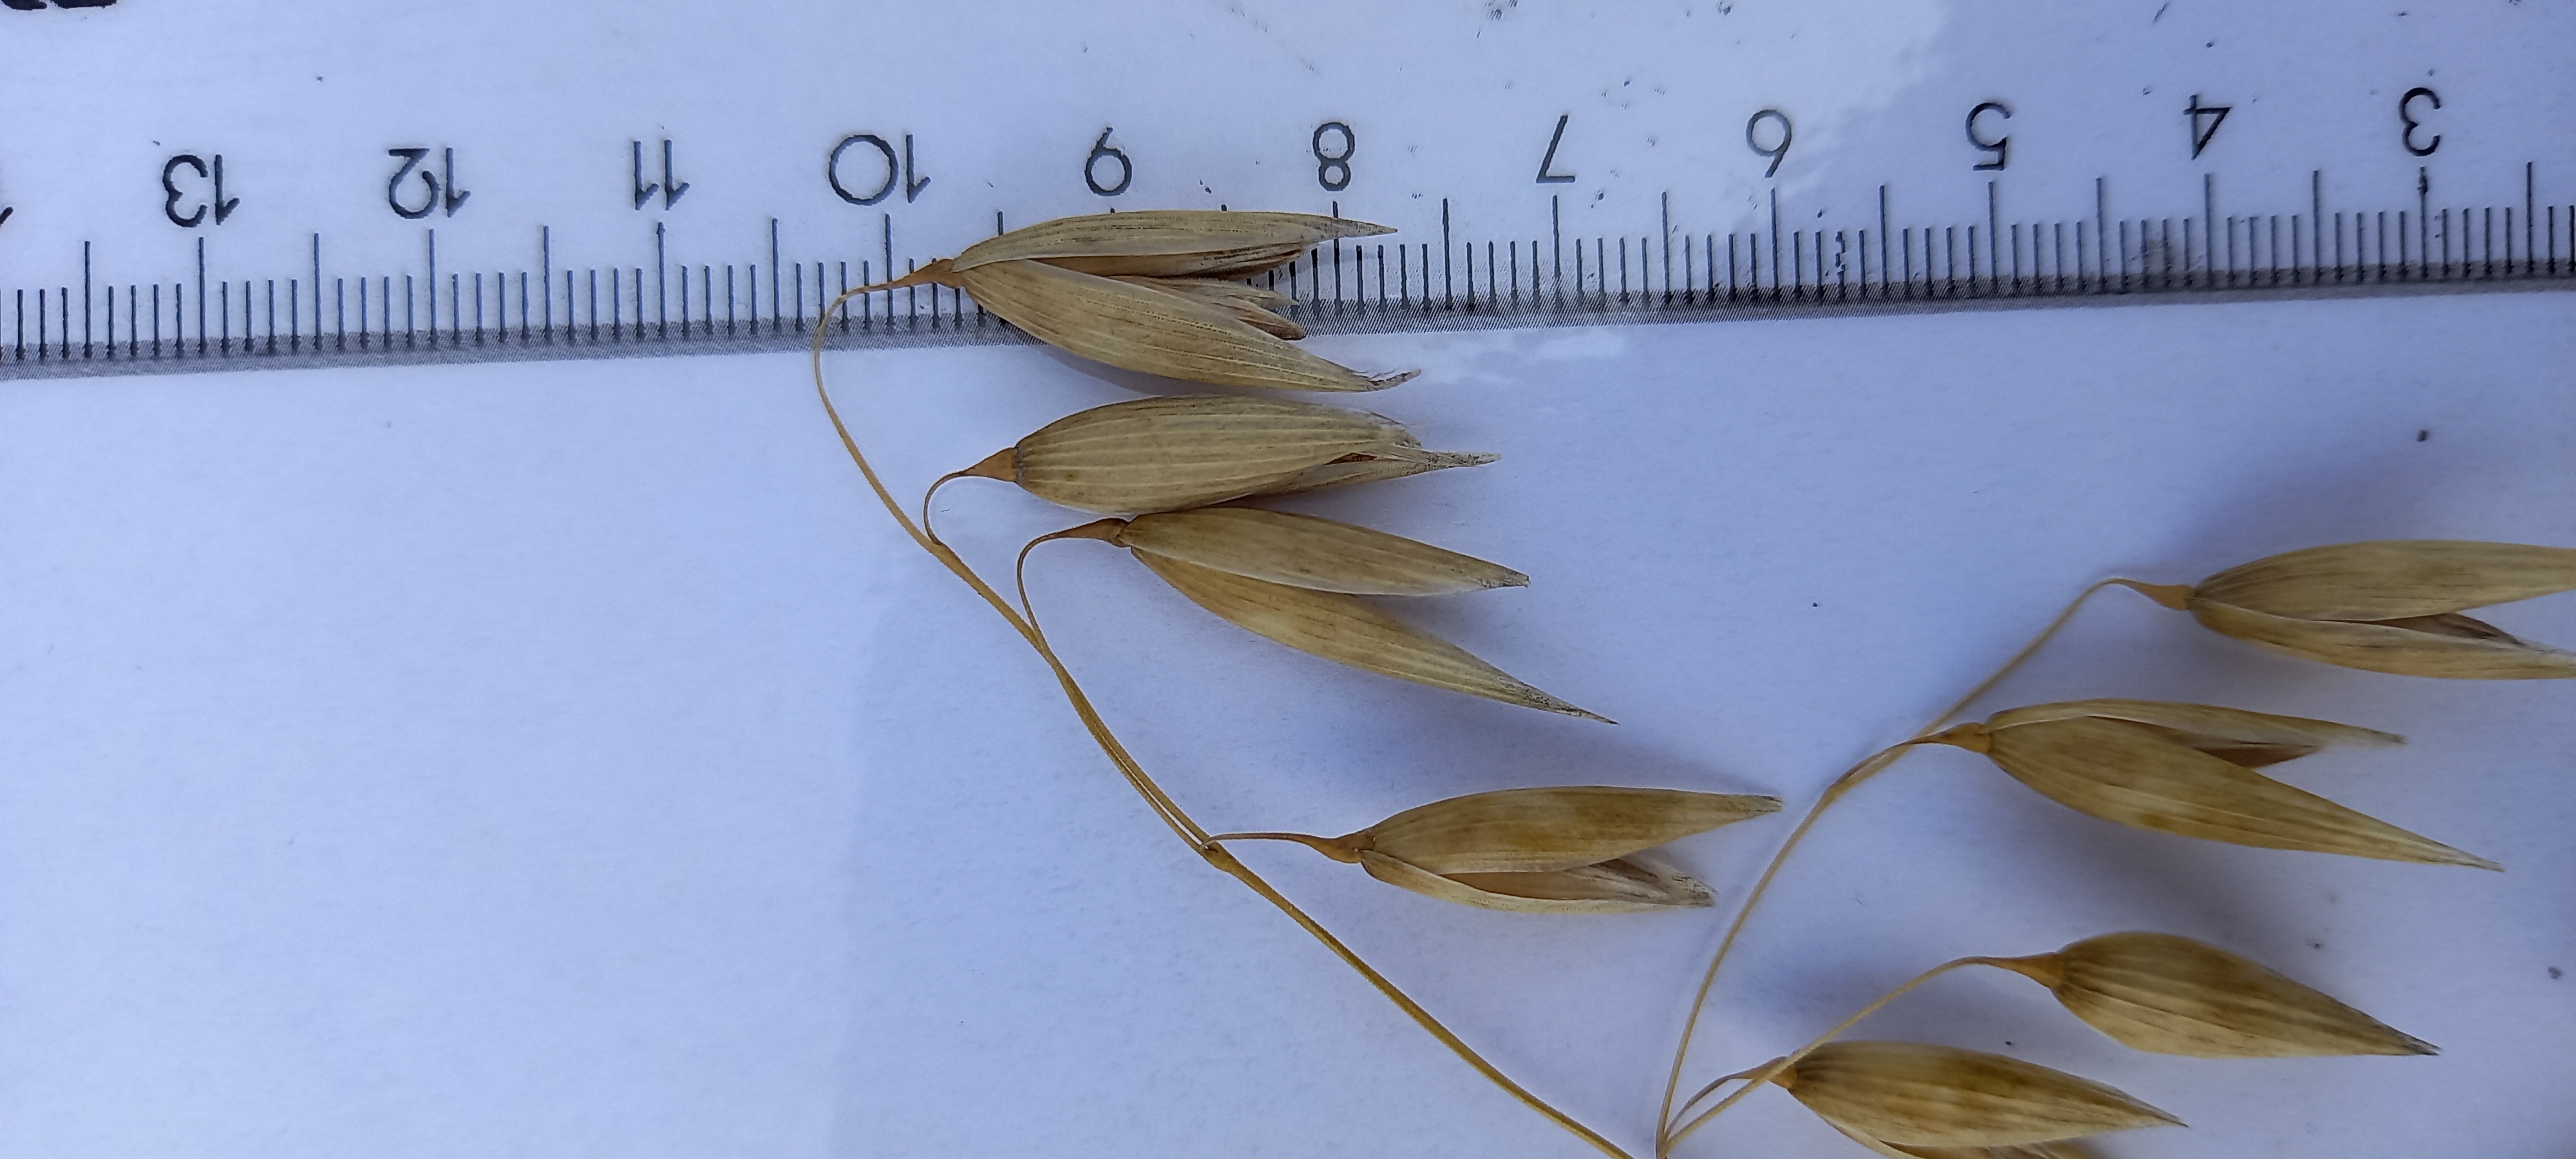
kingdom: Plantae
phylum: Tracheophyta
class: Liliopsida
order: Poales
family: Poaceae
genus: Avena
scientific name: Avena sativa
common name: Oat
